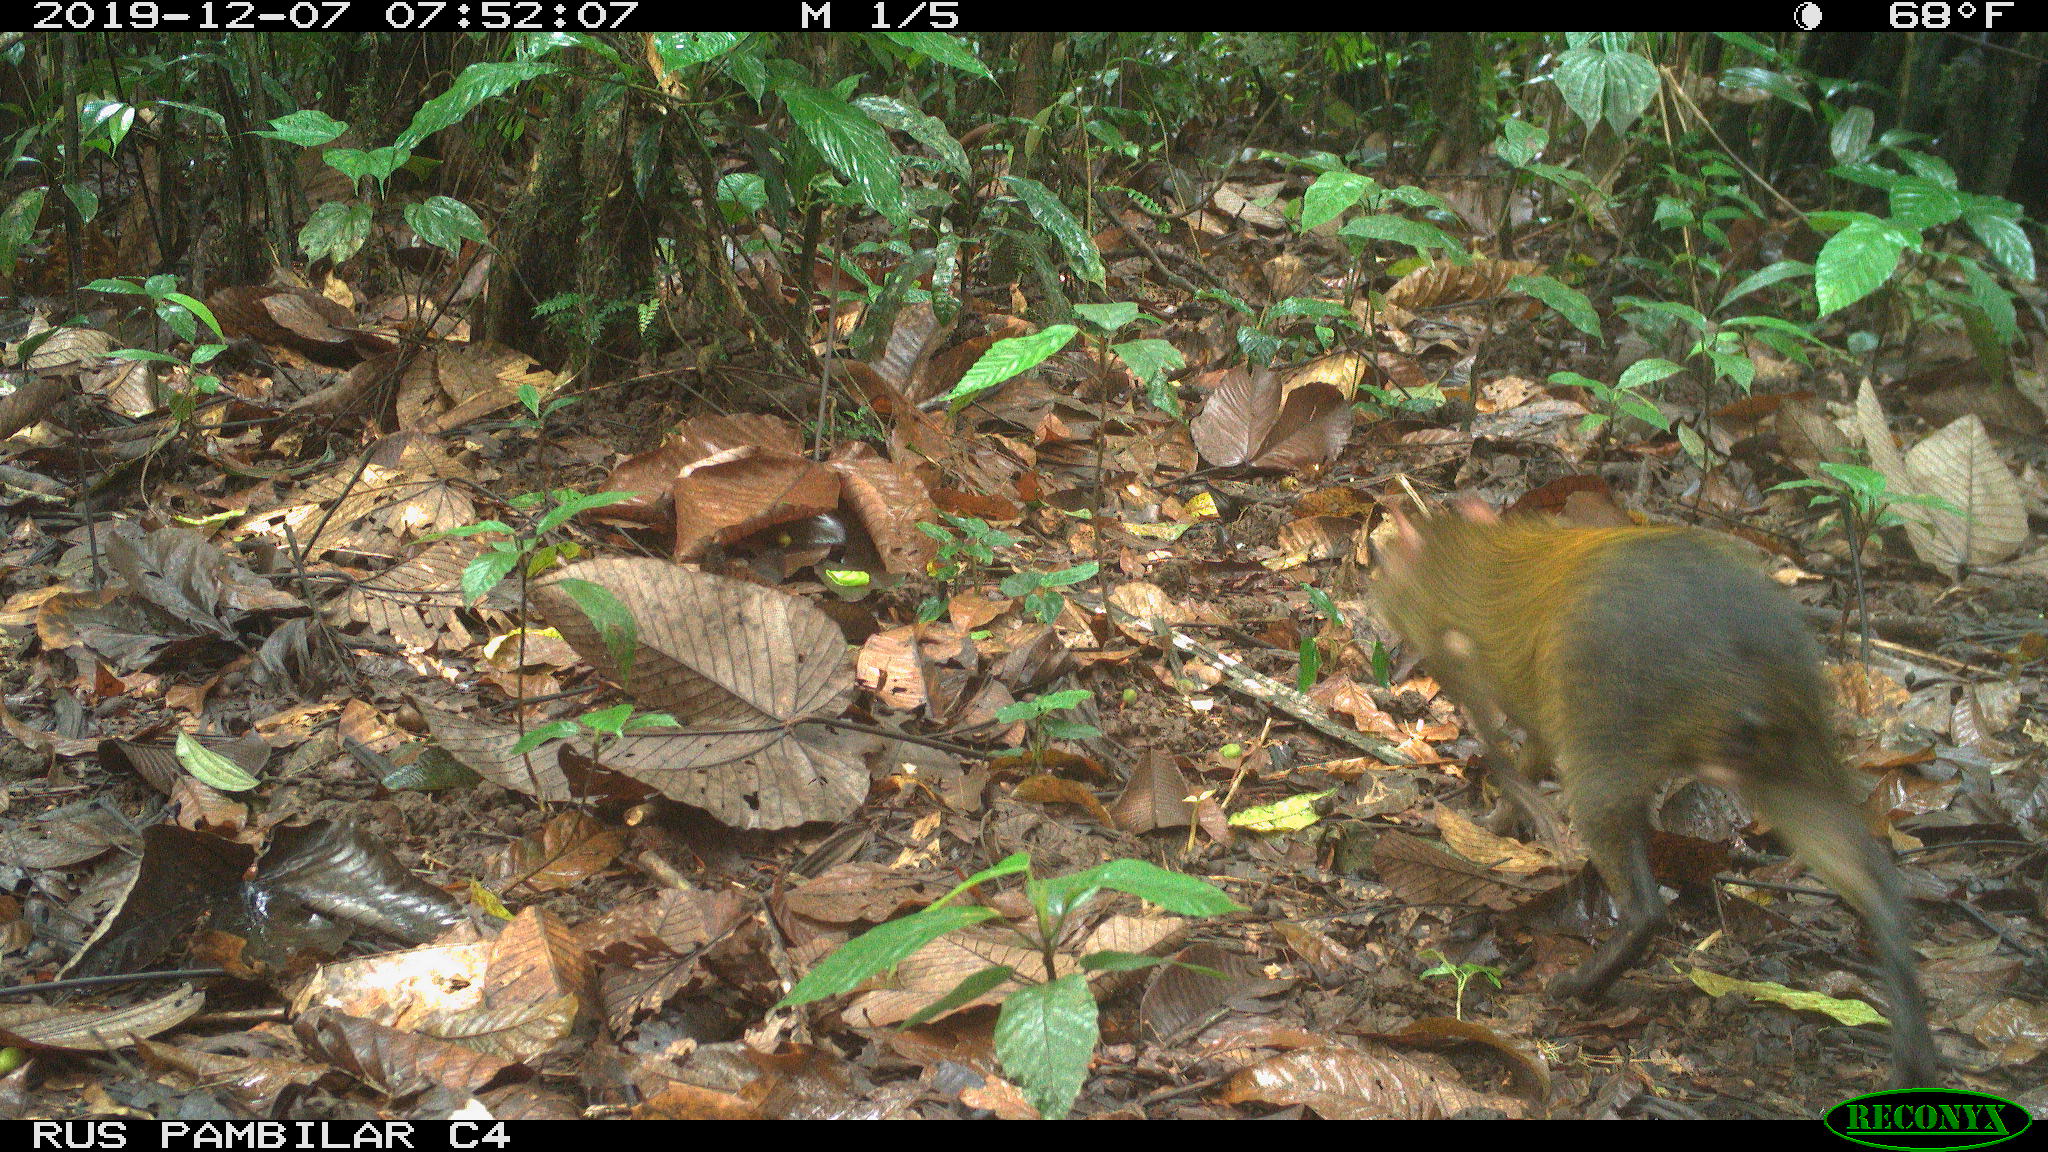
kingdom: Animalia
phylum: Chordata
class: Mammalia
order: Rodentia
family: Dasyproctidae
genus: Dasyprocta
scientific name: Dasyprocta punctata
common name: Central american agouti
